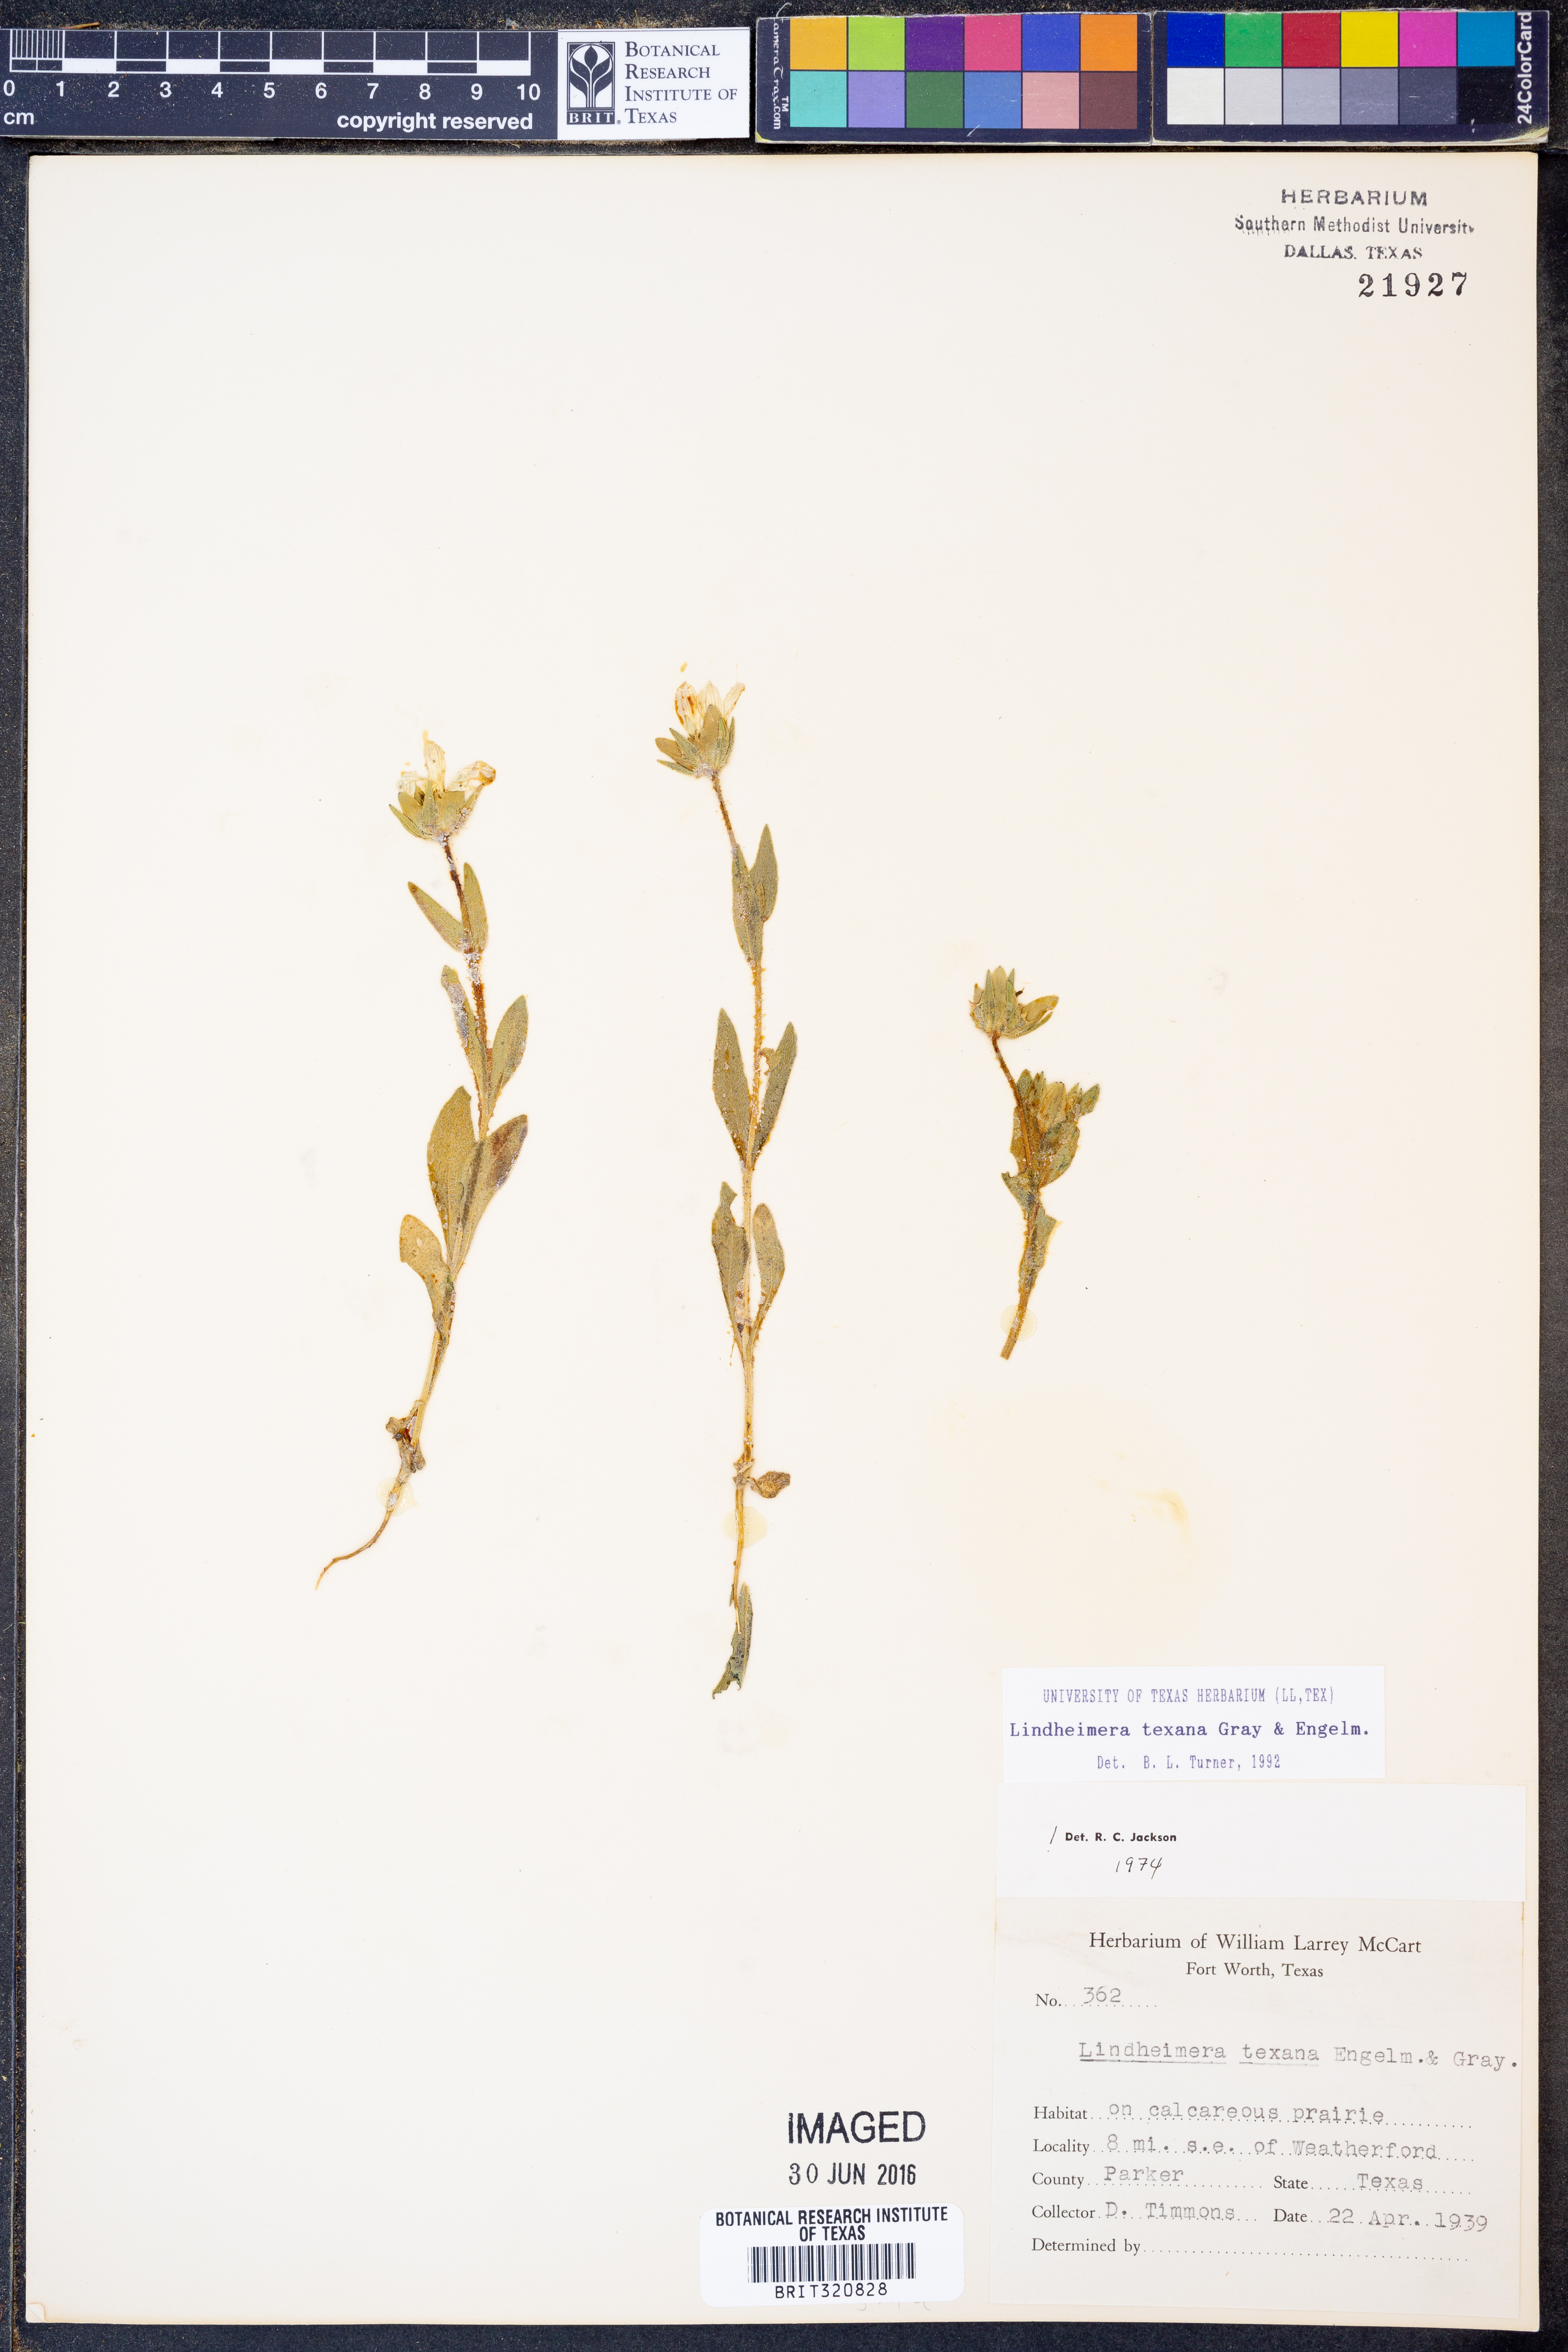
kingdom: Plantae
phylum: Tracheophyta
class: Magnoliopsida
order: Asterales
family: Asteraceae
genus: Lindheimera
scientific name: Lindheimera texana
